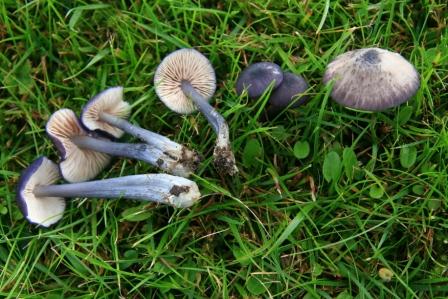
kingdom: Fungi
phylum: Basidiomycota
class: Agaricomycetes
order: Agaricales
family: Entolomataceae
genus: Entoloma
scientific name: Entoloma viiduense
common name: purpurbrun rødblad
